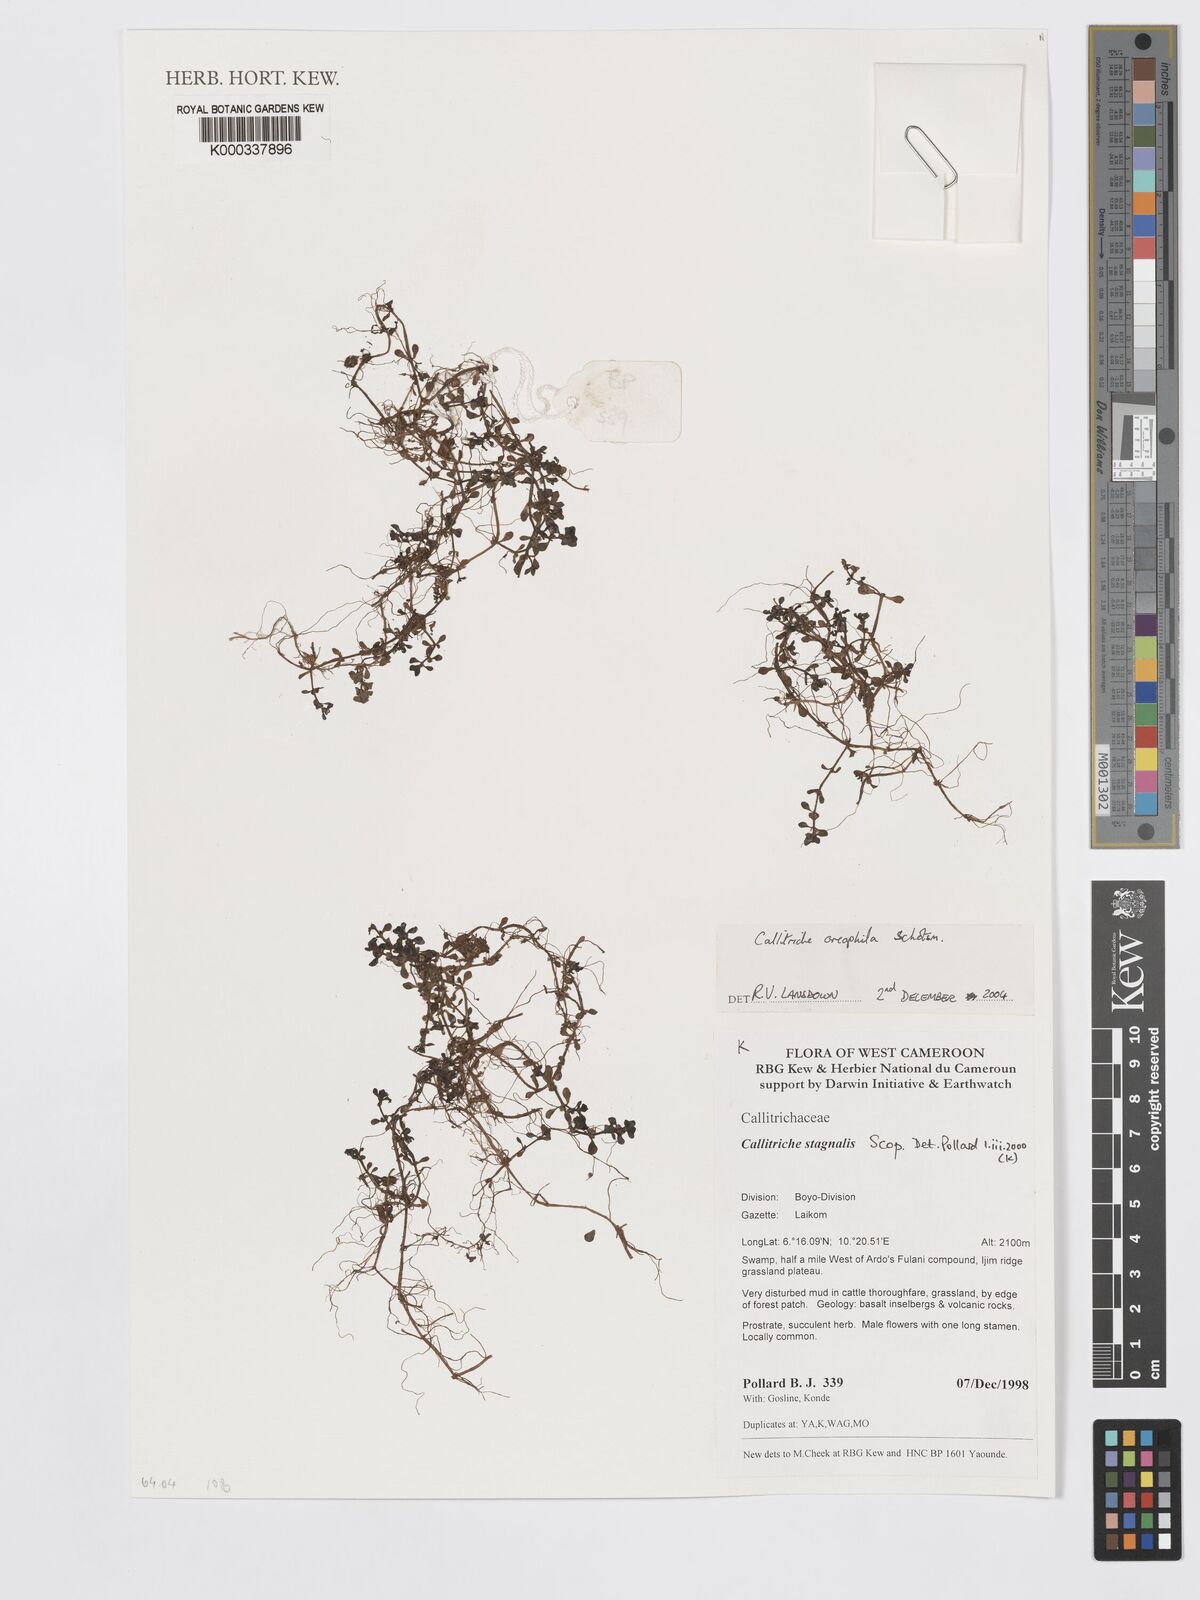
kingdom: Plantae
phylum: Tracheophyta
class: Magnoliopsida
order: Lamiales
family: Plantaginaceae
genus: Callitriche
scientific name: Callitriche stagnalis
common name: Common water-starwort
